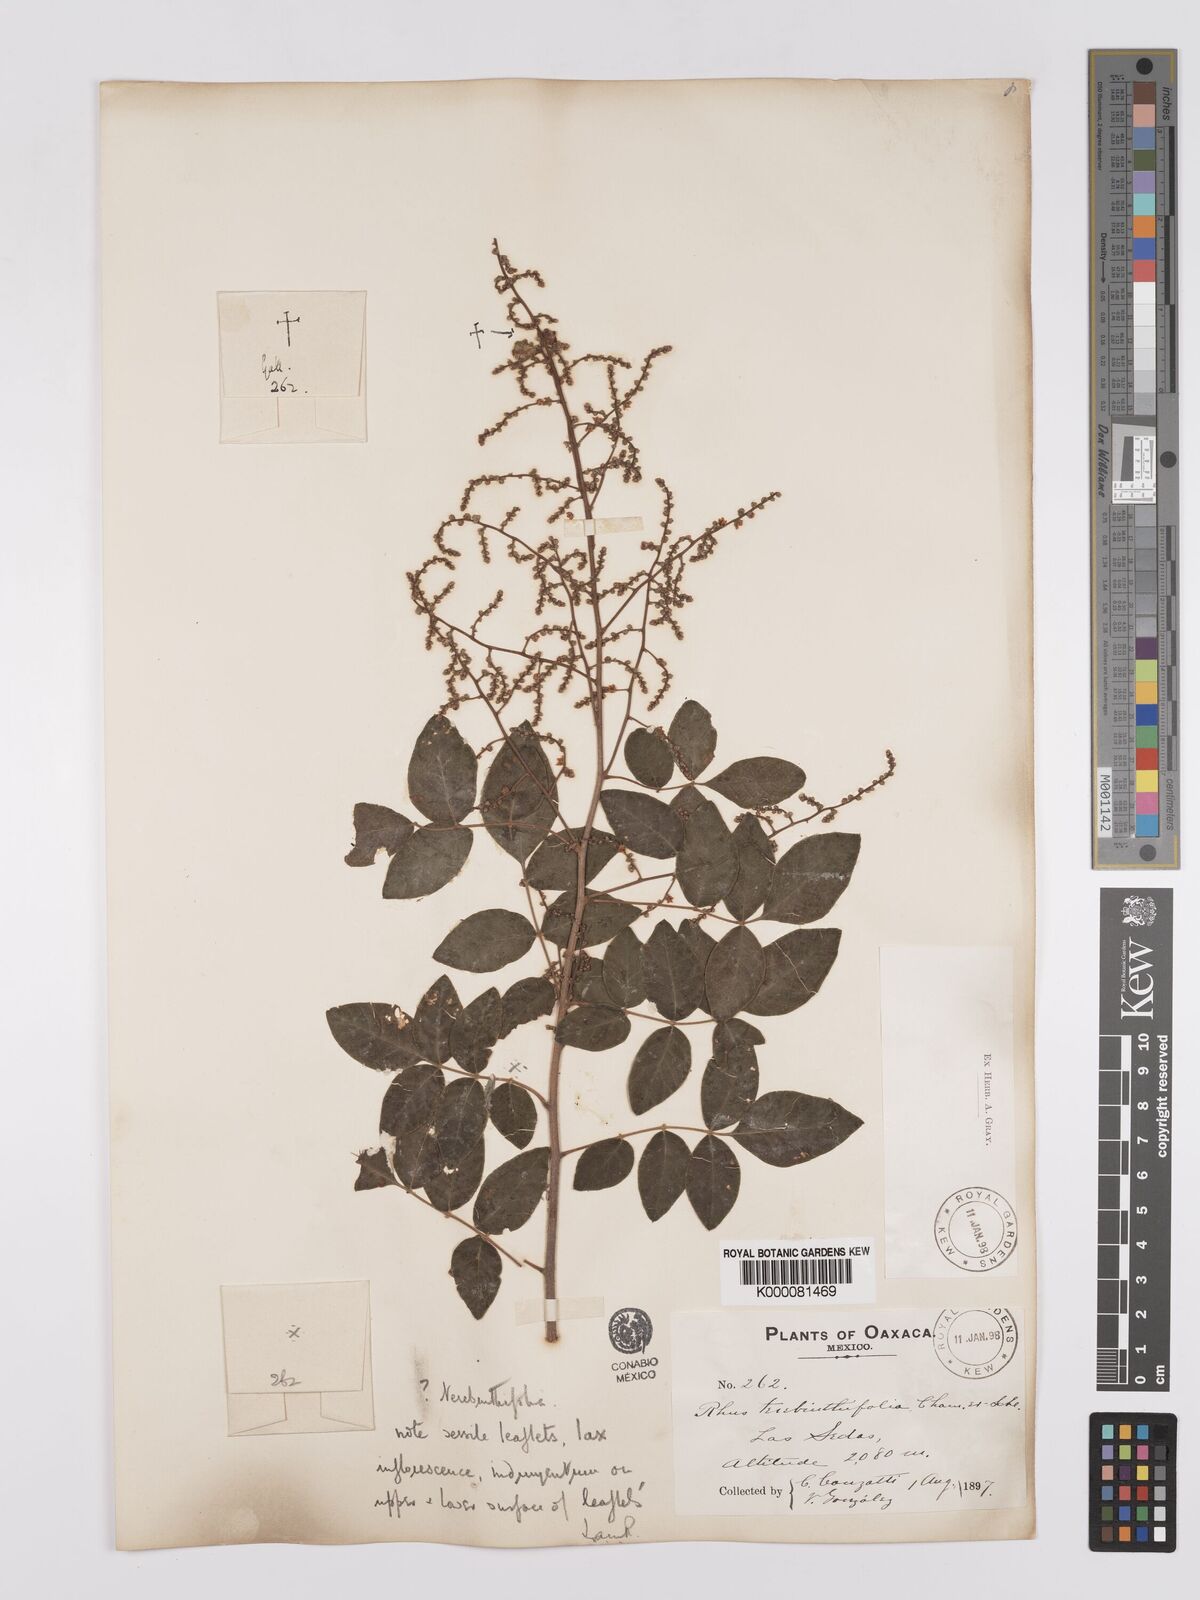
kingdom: Plantae
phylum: Tracheophyta
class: Magnoliopsida
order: Sapindales
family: Anacardiaceae
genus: Rhus
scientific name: Rhus
